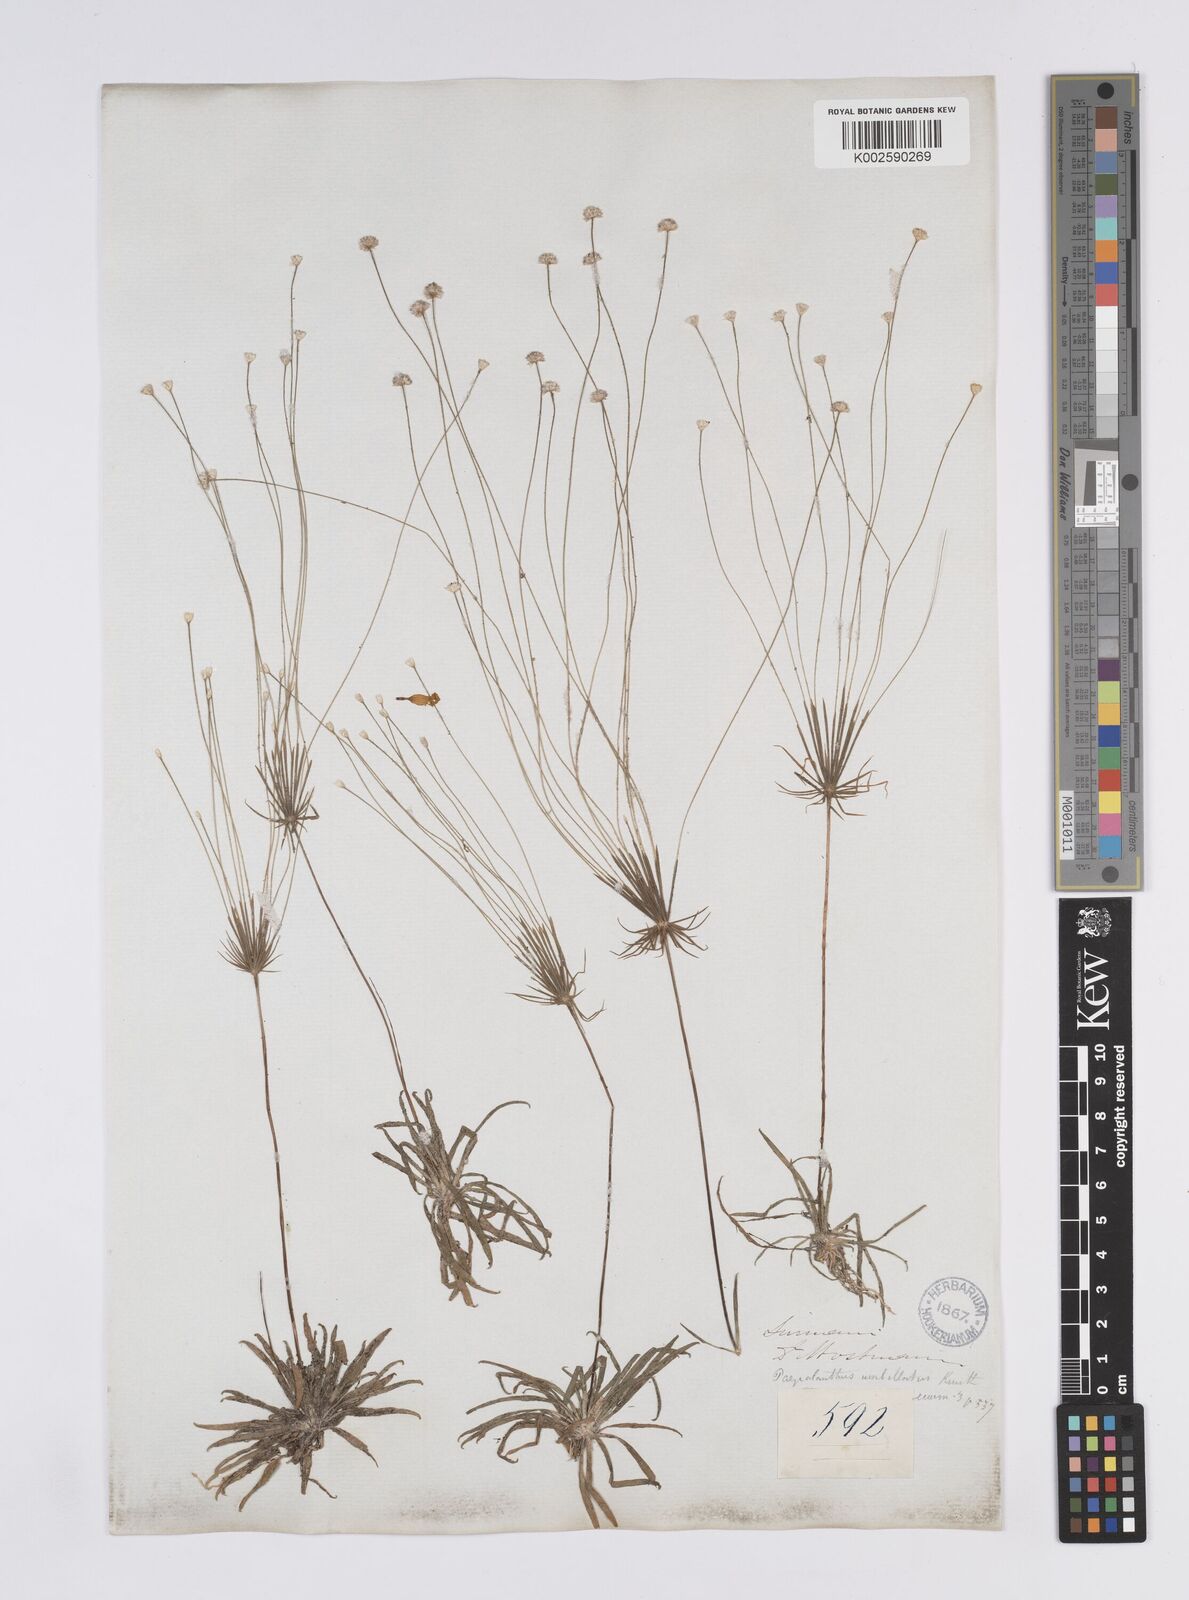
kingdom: Plantae
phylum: Tracheophyta
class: Liliopsida
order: Poales
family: Eriocaulaceae
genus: Syngonanthus
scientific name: Syngonanthus umbellatus
